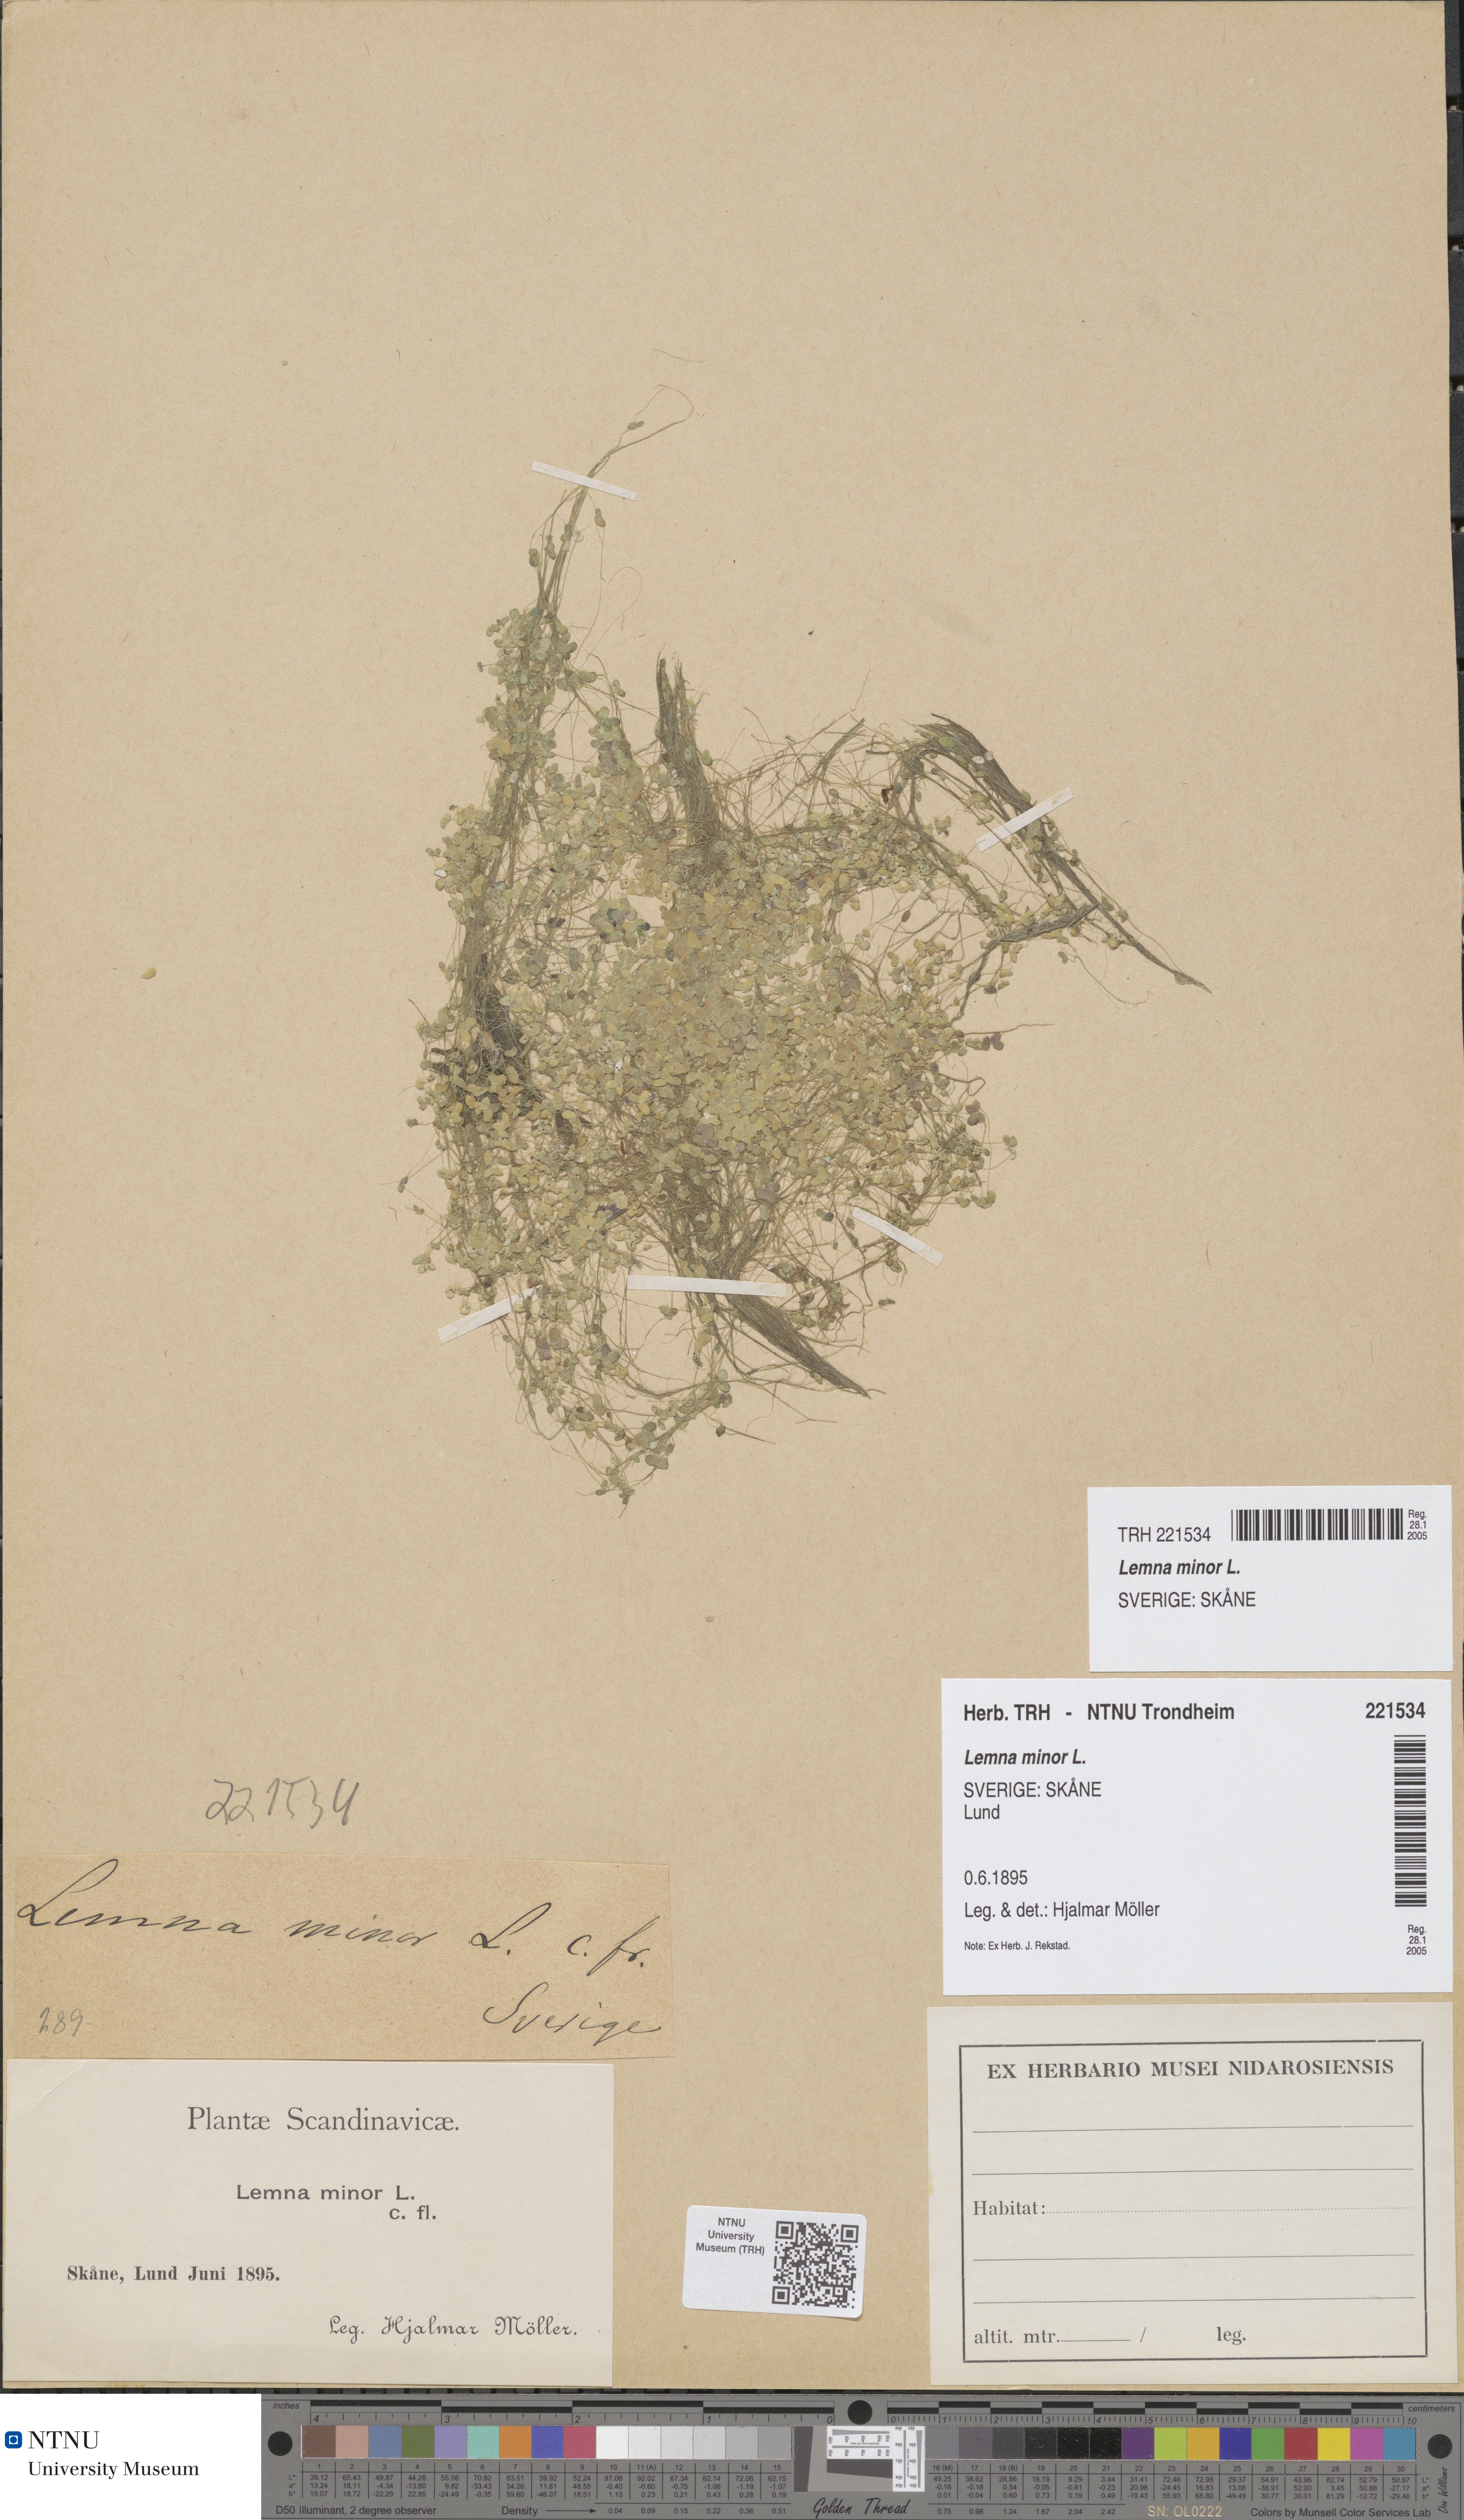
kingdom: Plantae
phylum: Tracheophyta
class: Liliopsida
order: Alismatales
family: Araceae
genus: Lemna
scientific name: Lemna minor
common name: Common duckweed
